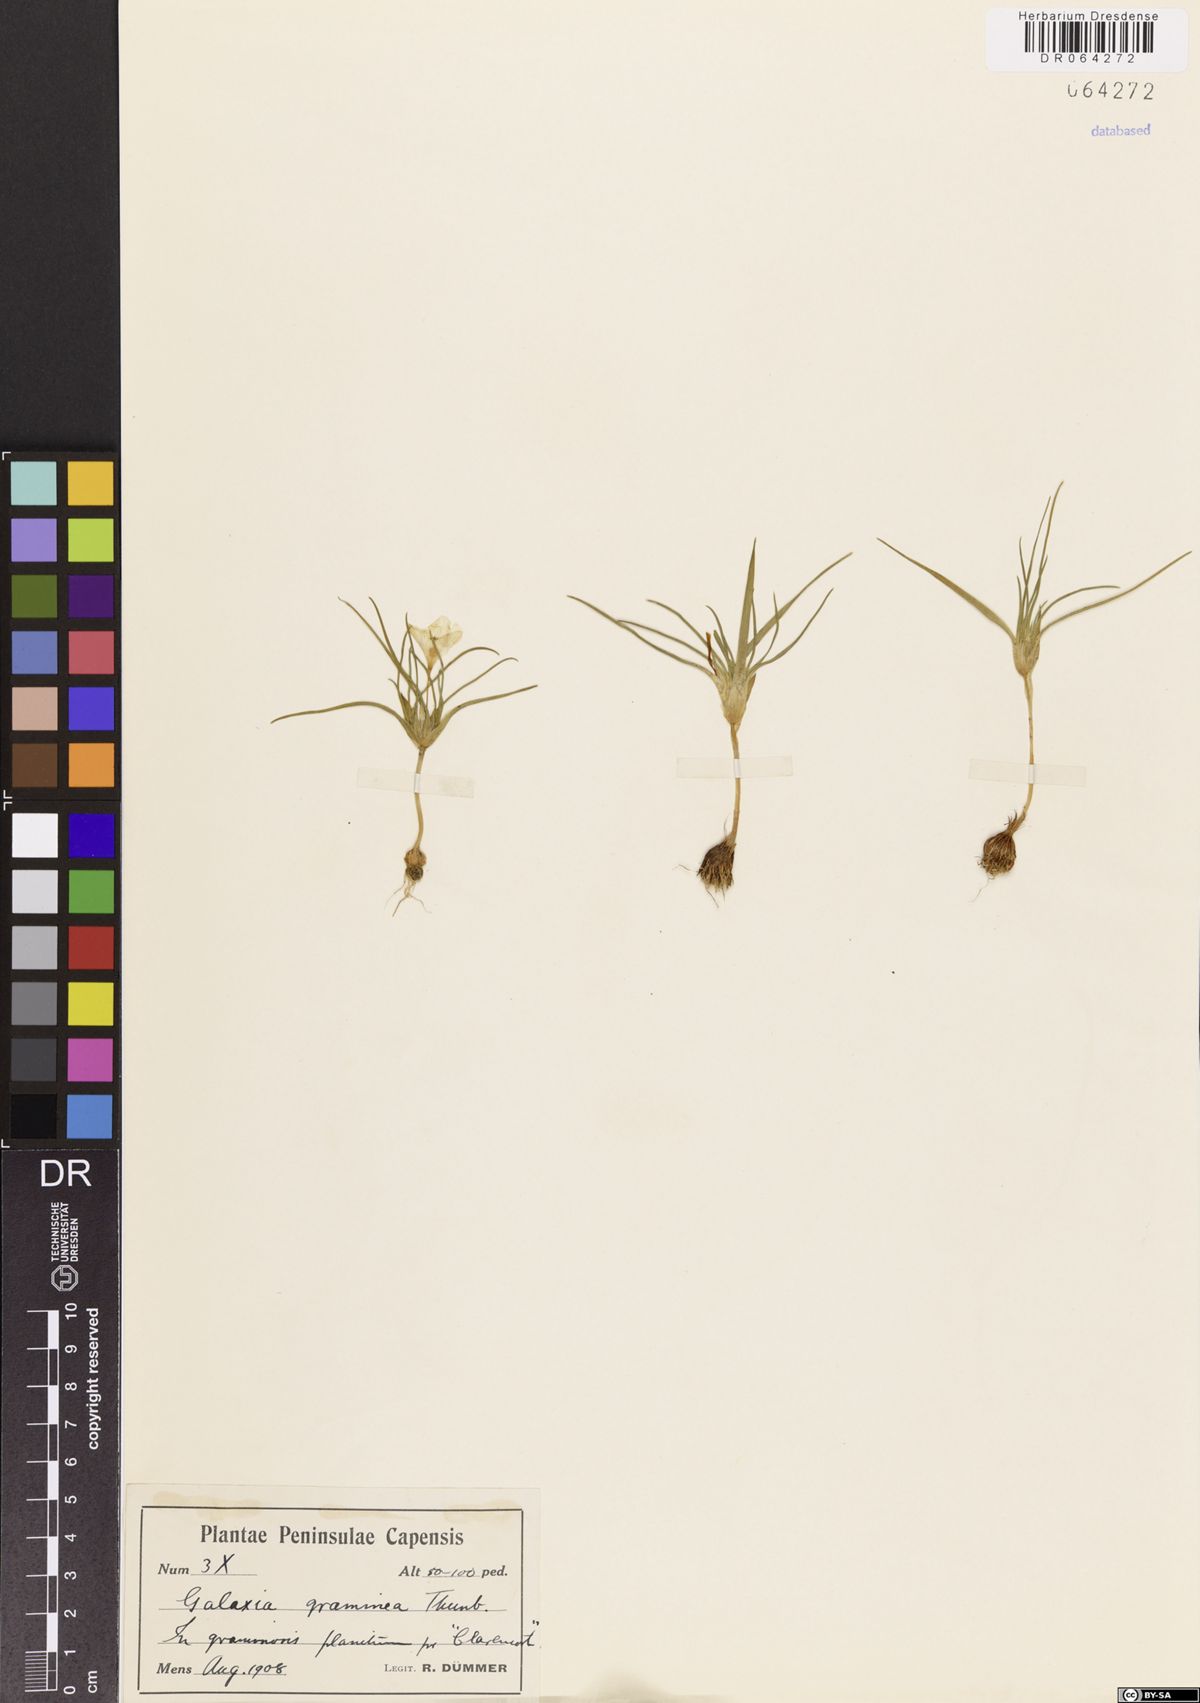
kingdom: Plantae
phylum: Tracheophyta
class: Liliopsida
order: Asparagales
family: Iridaceae
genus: Moraea
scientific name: Moraea fugacissima
